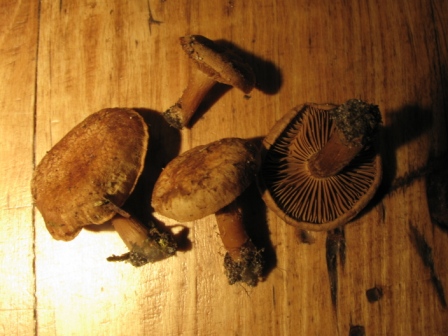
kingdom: Fungi
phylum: Basidiomycota
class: Agaricomycetes
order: Agaricales
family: Inocybaceae
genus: Inocybe
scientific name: Inocybe dulcamara
